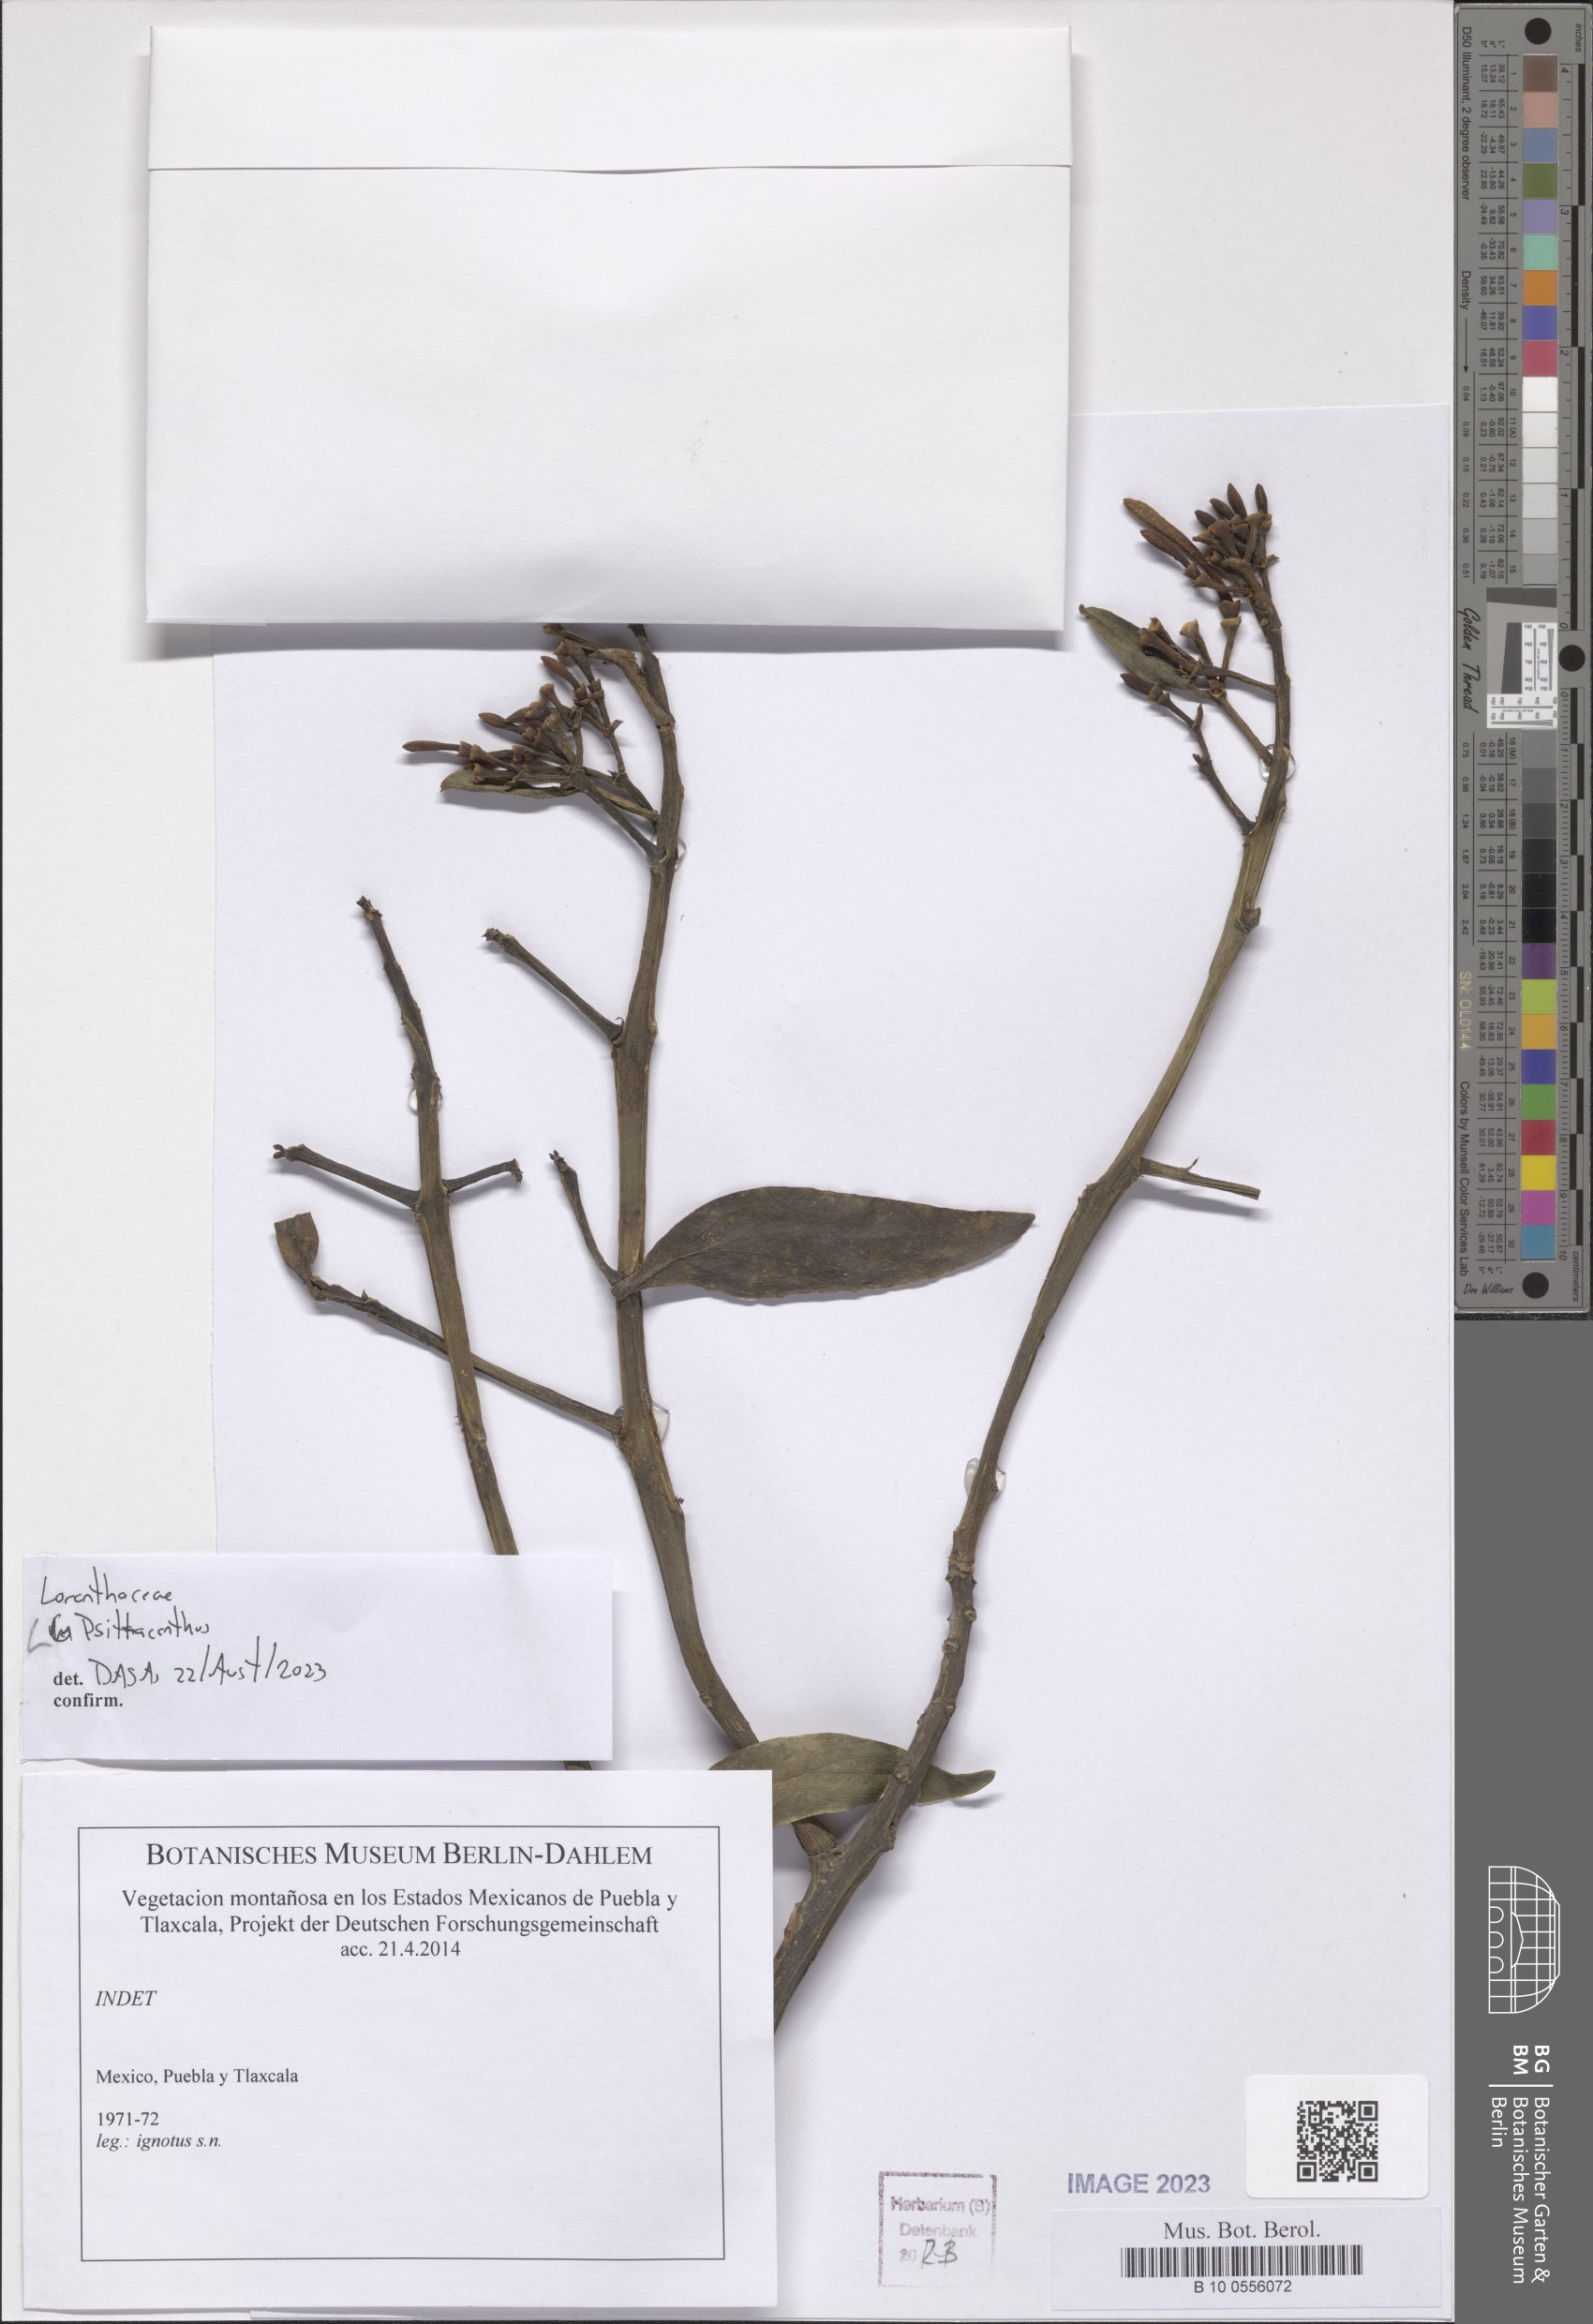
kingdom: Plantae
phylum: Tracheophyta
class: Magnoliopsida
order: Santalales
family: Loranthaceae
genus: Psittacanthus
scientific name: Psittacanthus
